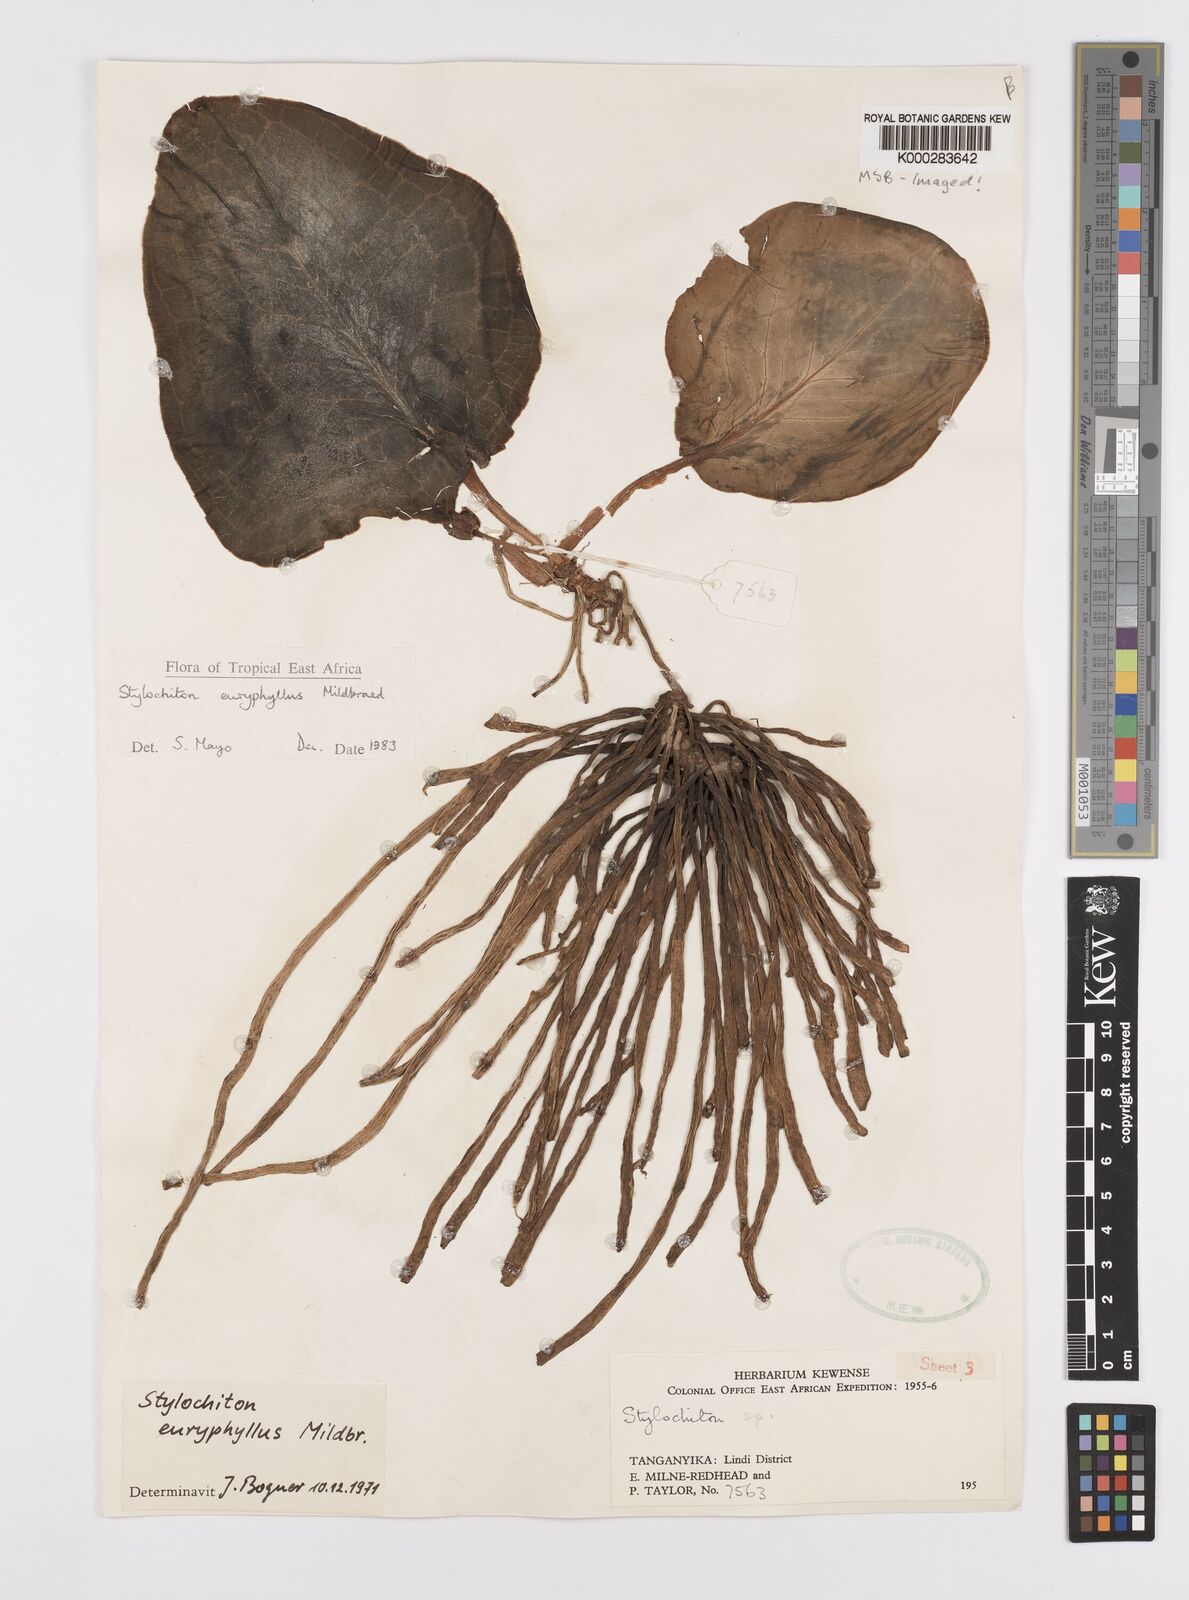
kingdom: Plantae
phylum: Tracheophyta
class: Liliopsida
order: Alismatales
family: Araceae
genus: Stylochaeton
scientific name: Stylochaeton euryphyllum
